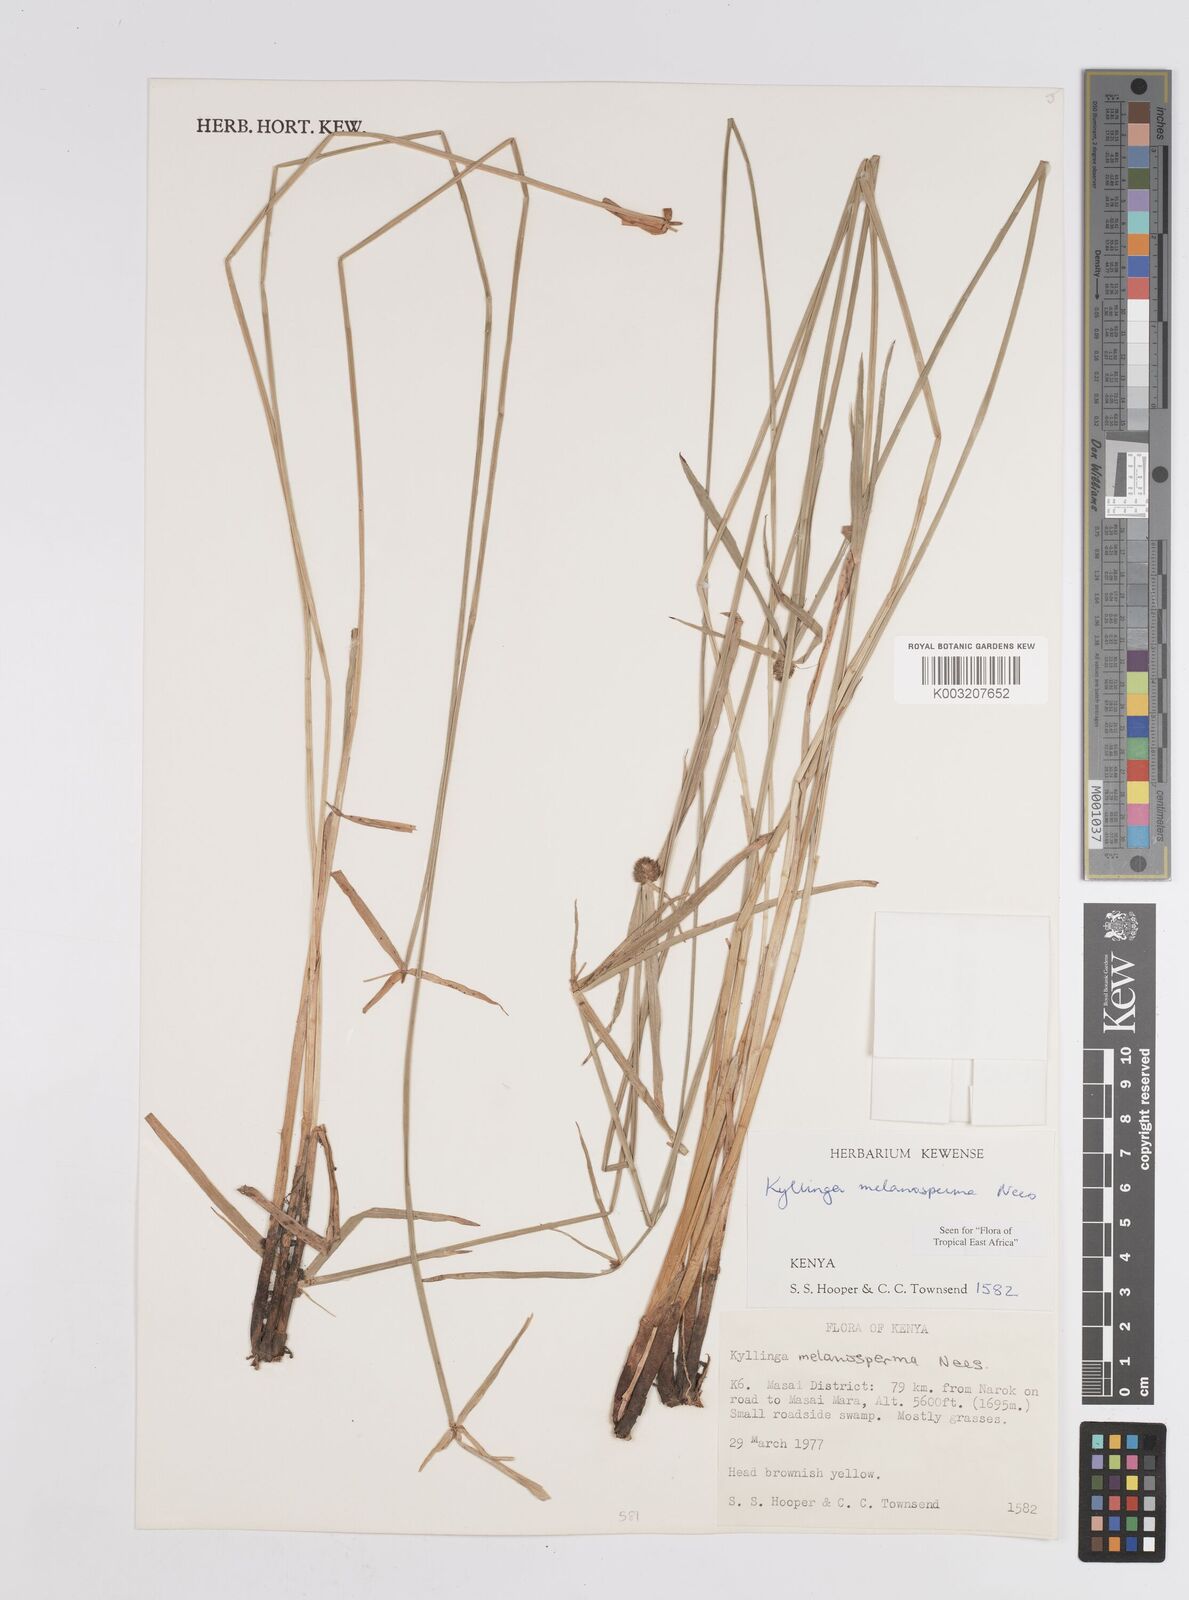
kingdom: Plantae
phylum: Tracheophyta
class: Liliopsida
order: Poales
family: Cyperaceae
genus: Cyperus
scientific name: Cyperus melanospermus
